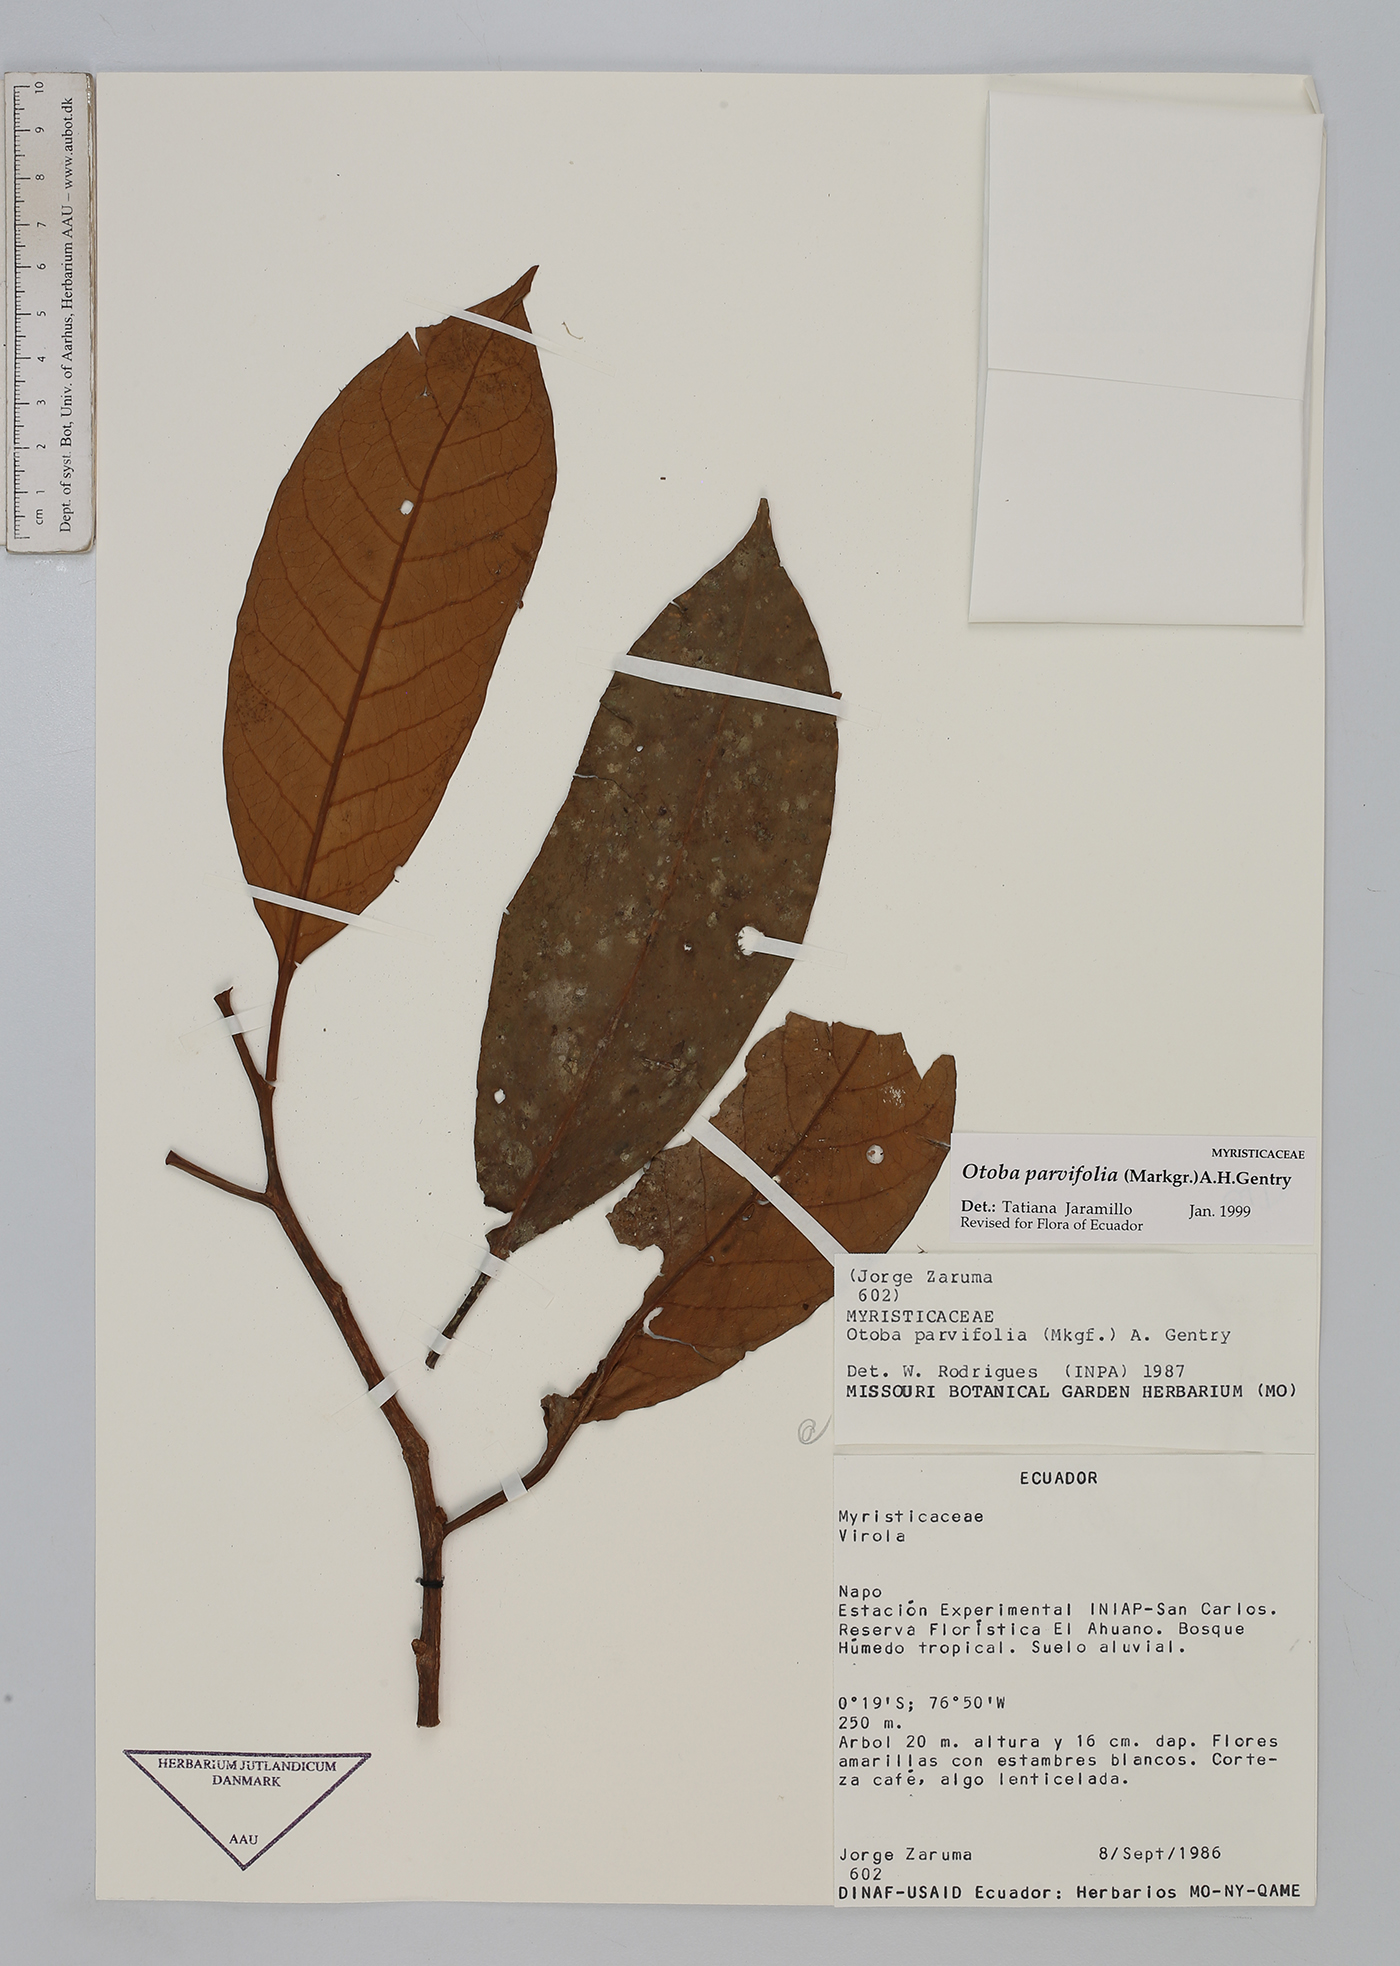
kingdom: Plantae
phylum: Tracheophyta
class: Magnoliopsida
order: Magnoliales
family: Myristicaceae
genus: Otoba
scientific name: Otoba parvifolia
